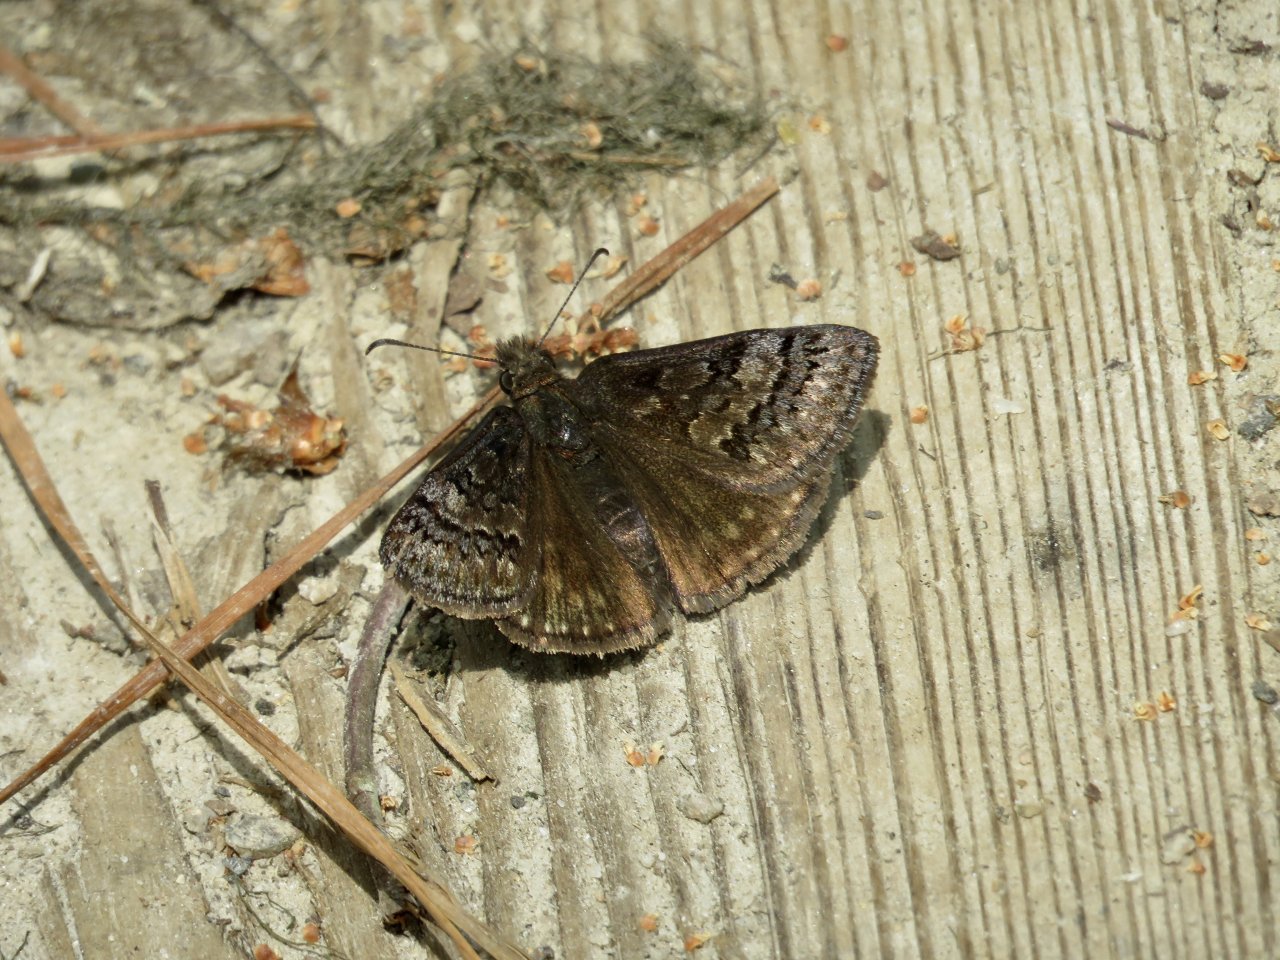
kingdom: Animalia
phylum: Arthropoda
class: Insecta
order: Lepidoptera
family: Hesperiidae
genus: Erynnis
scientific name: Erynnis brizo
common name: Sleepy Duskywing
